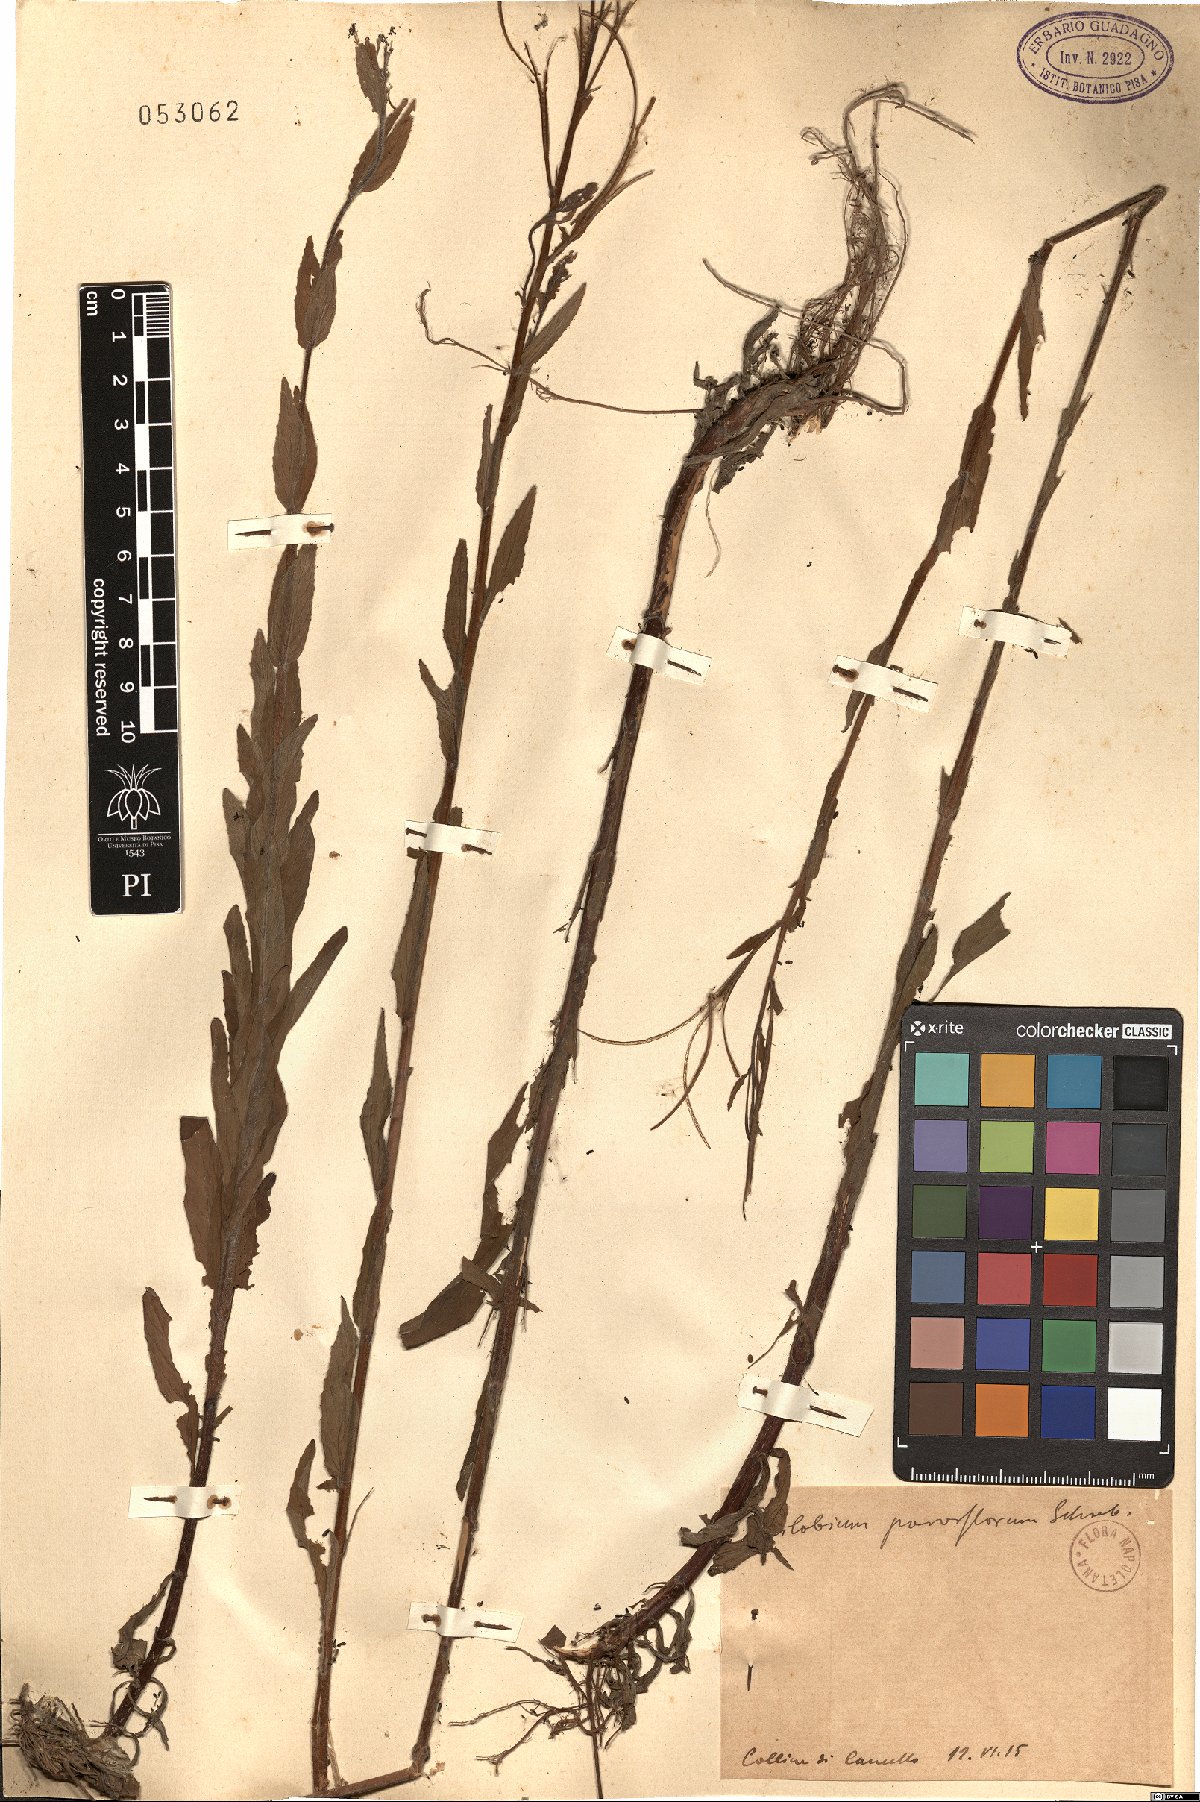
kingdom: Plantae
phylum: Tracheophyta
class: Magnoliopsida
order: Myrtales
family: Onagraceae
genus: Epilobium
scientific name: Epilobium parviflorum
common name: Hoary willowherb
